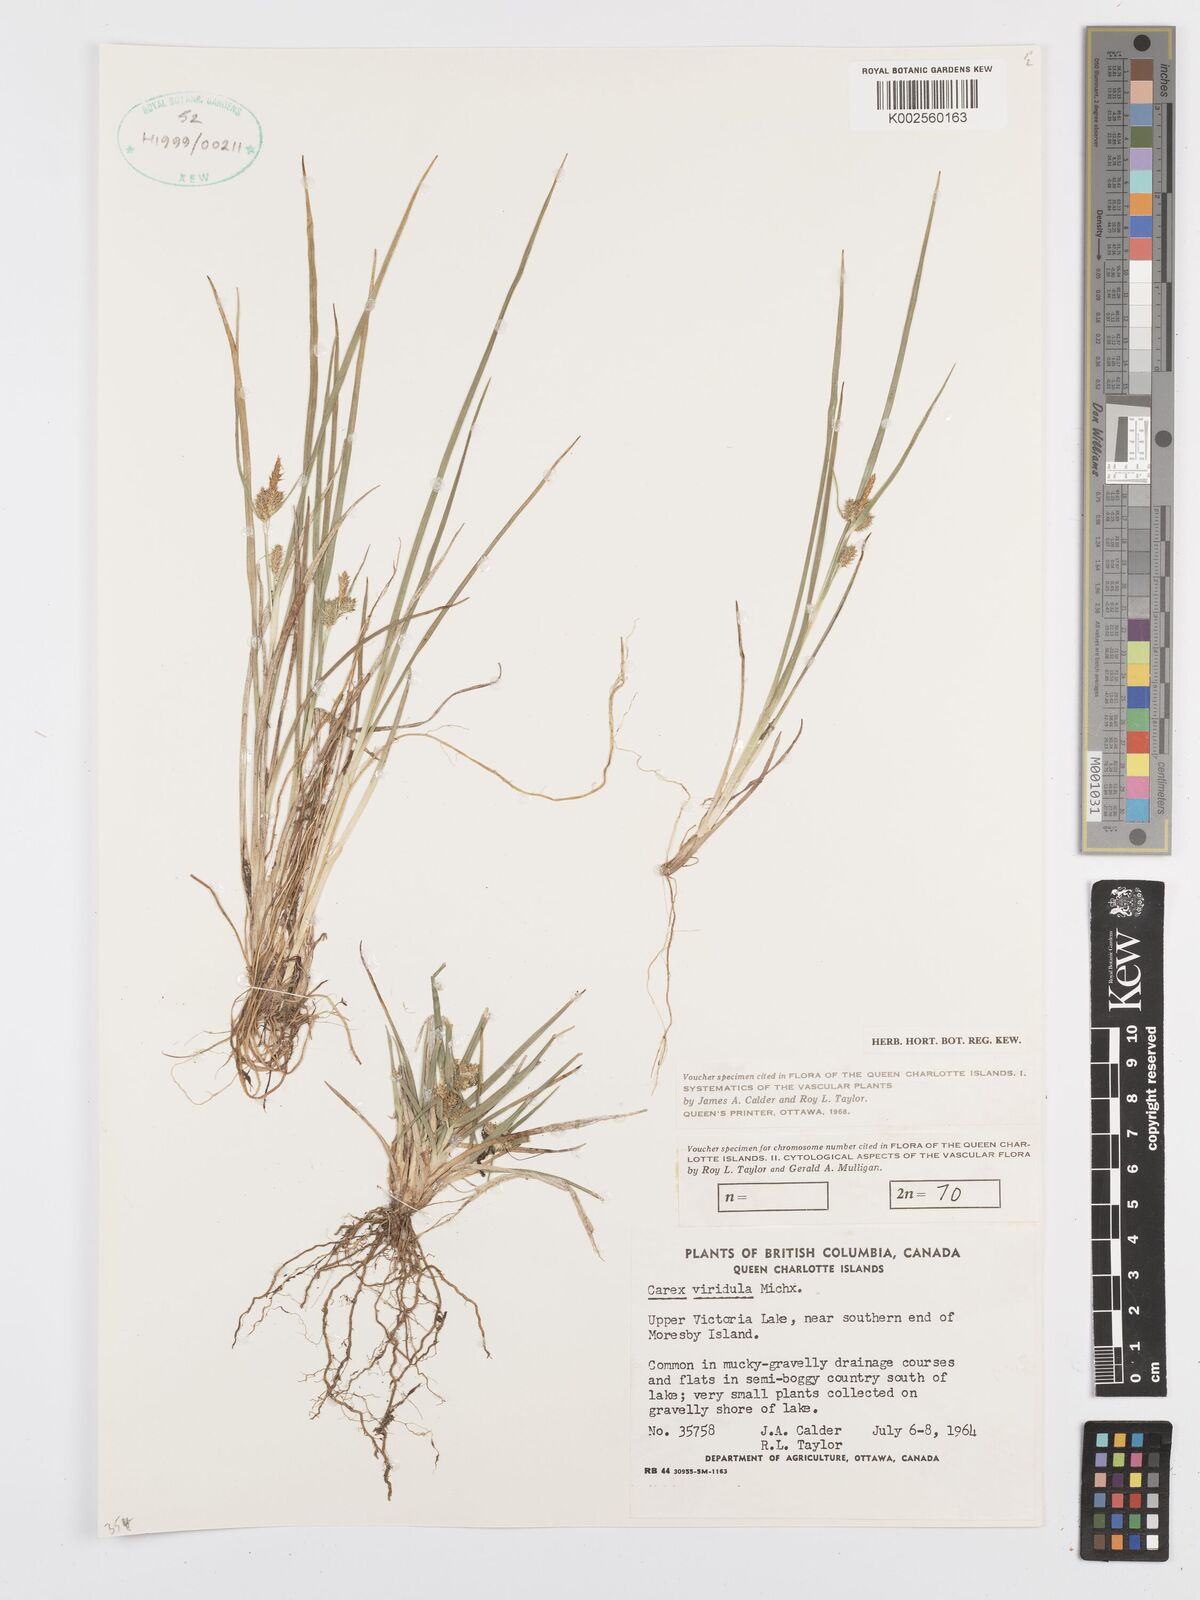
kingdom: Plantae
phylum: Tracheophyta
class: Liliopsida
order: Poales
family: Cyperaceae
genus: Carex
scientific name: Carex oederi
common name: Common & small-fruited yellow-sedge
